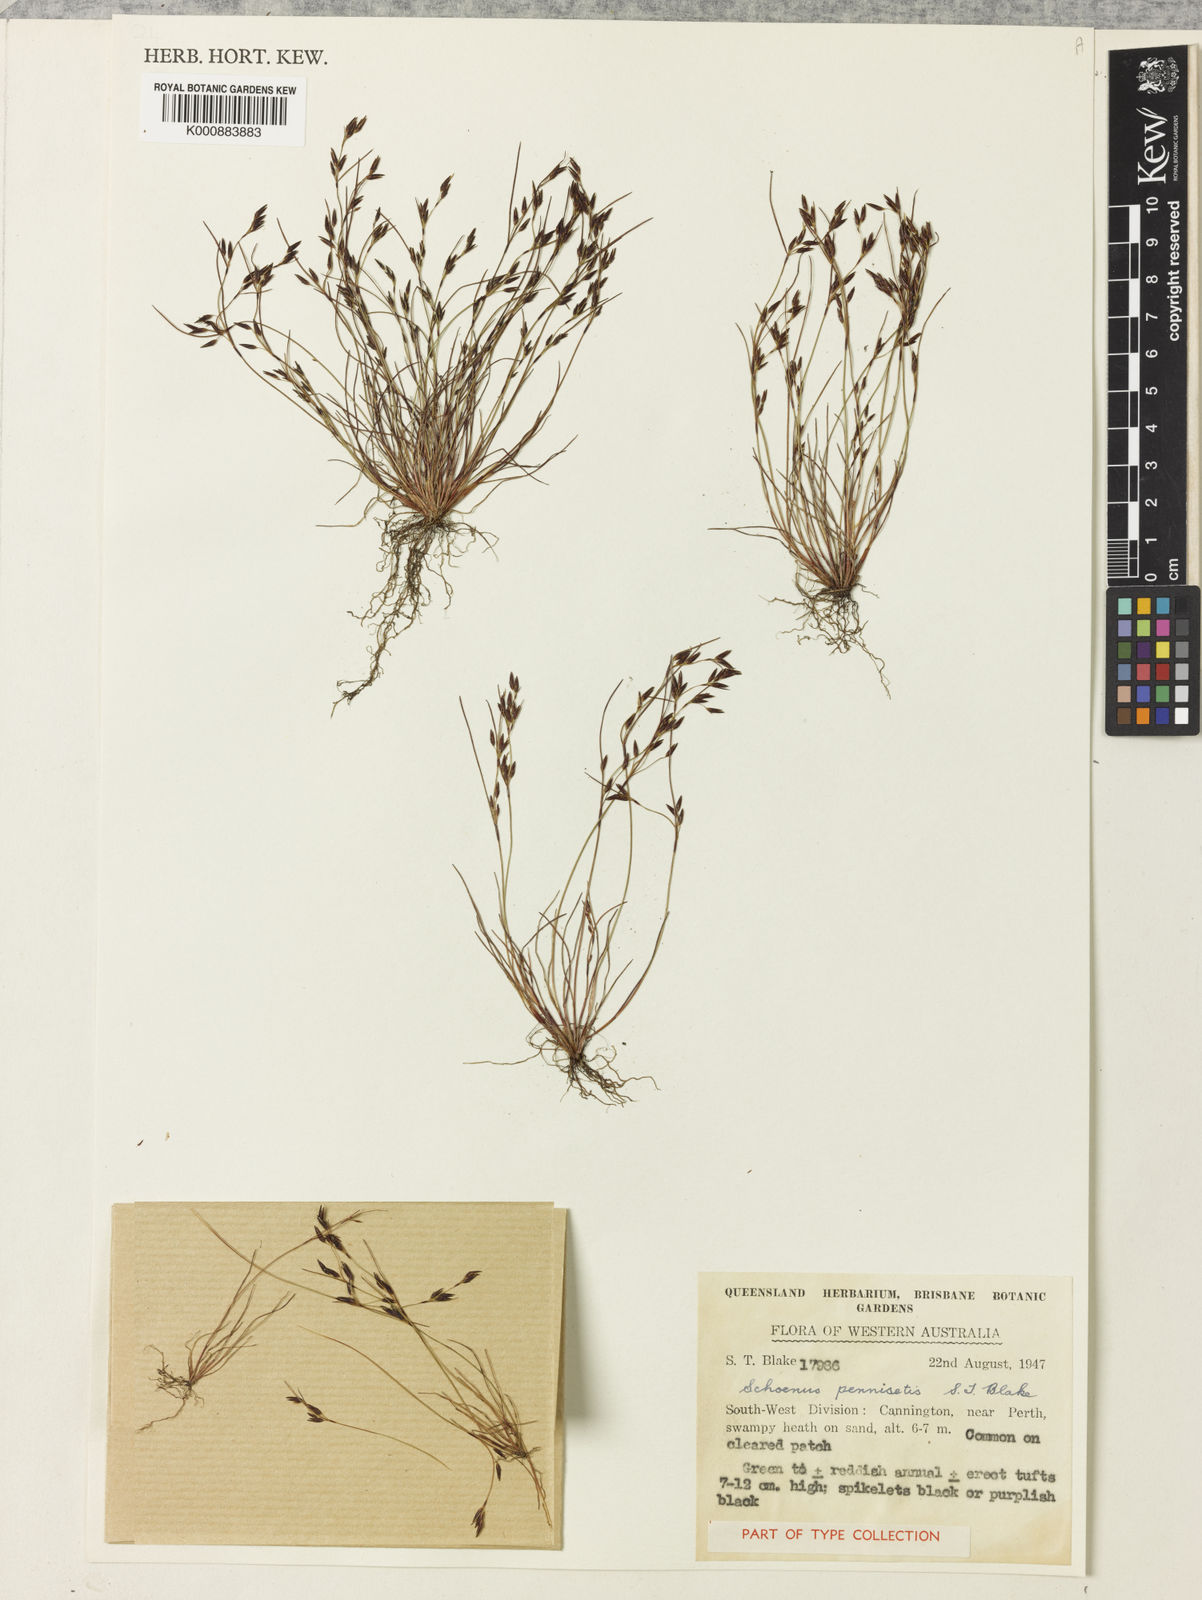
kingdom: Plantae
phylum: Tracheophyta
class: Liliopsida
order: Poales
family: Cyperaceae
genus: Schoenus
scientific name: Schoenus pennisetis
